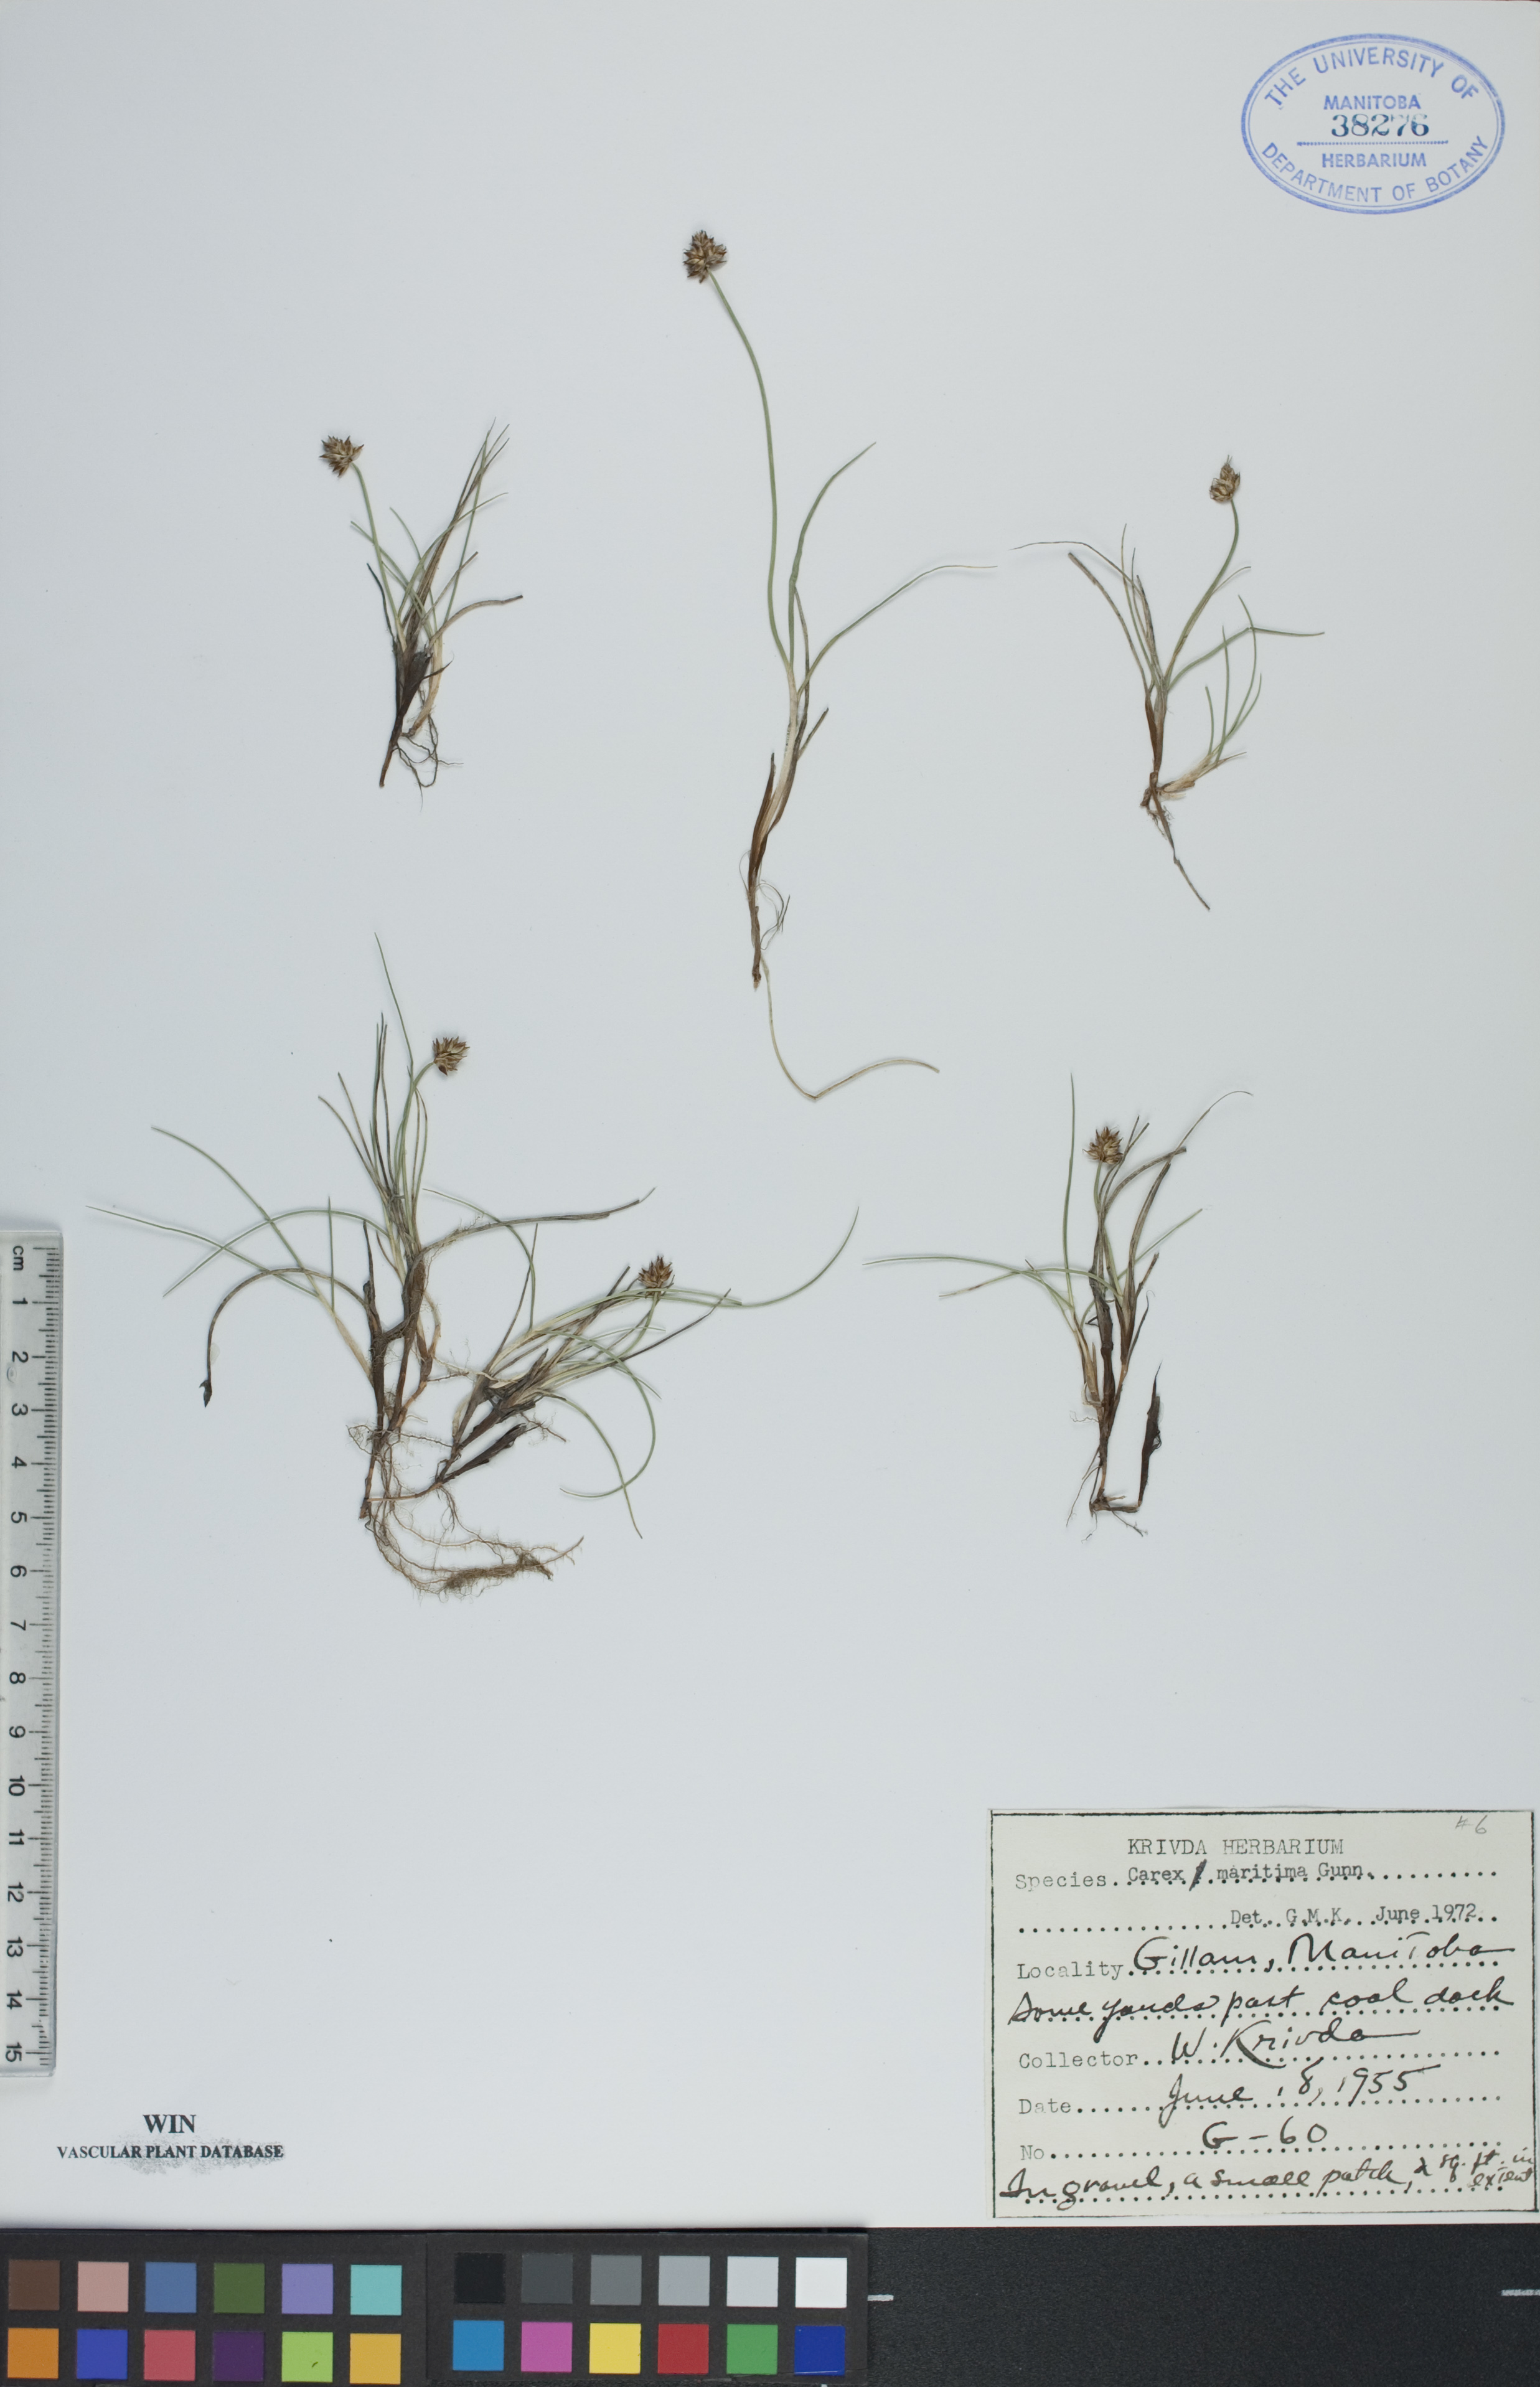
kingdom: Plantae
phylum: Tracheophyta
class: Liliopsida
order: Poales
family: Cyperaceae
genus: Carex
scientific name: Carex maritima
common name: Curved sedge
